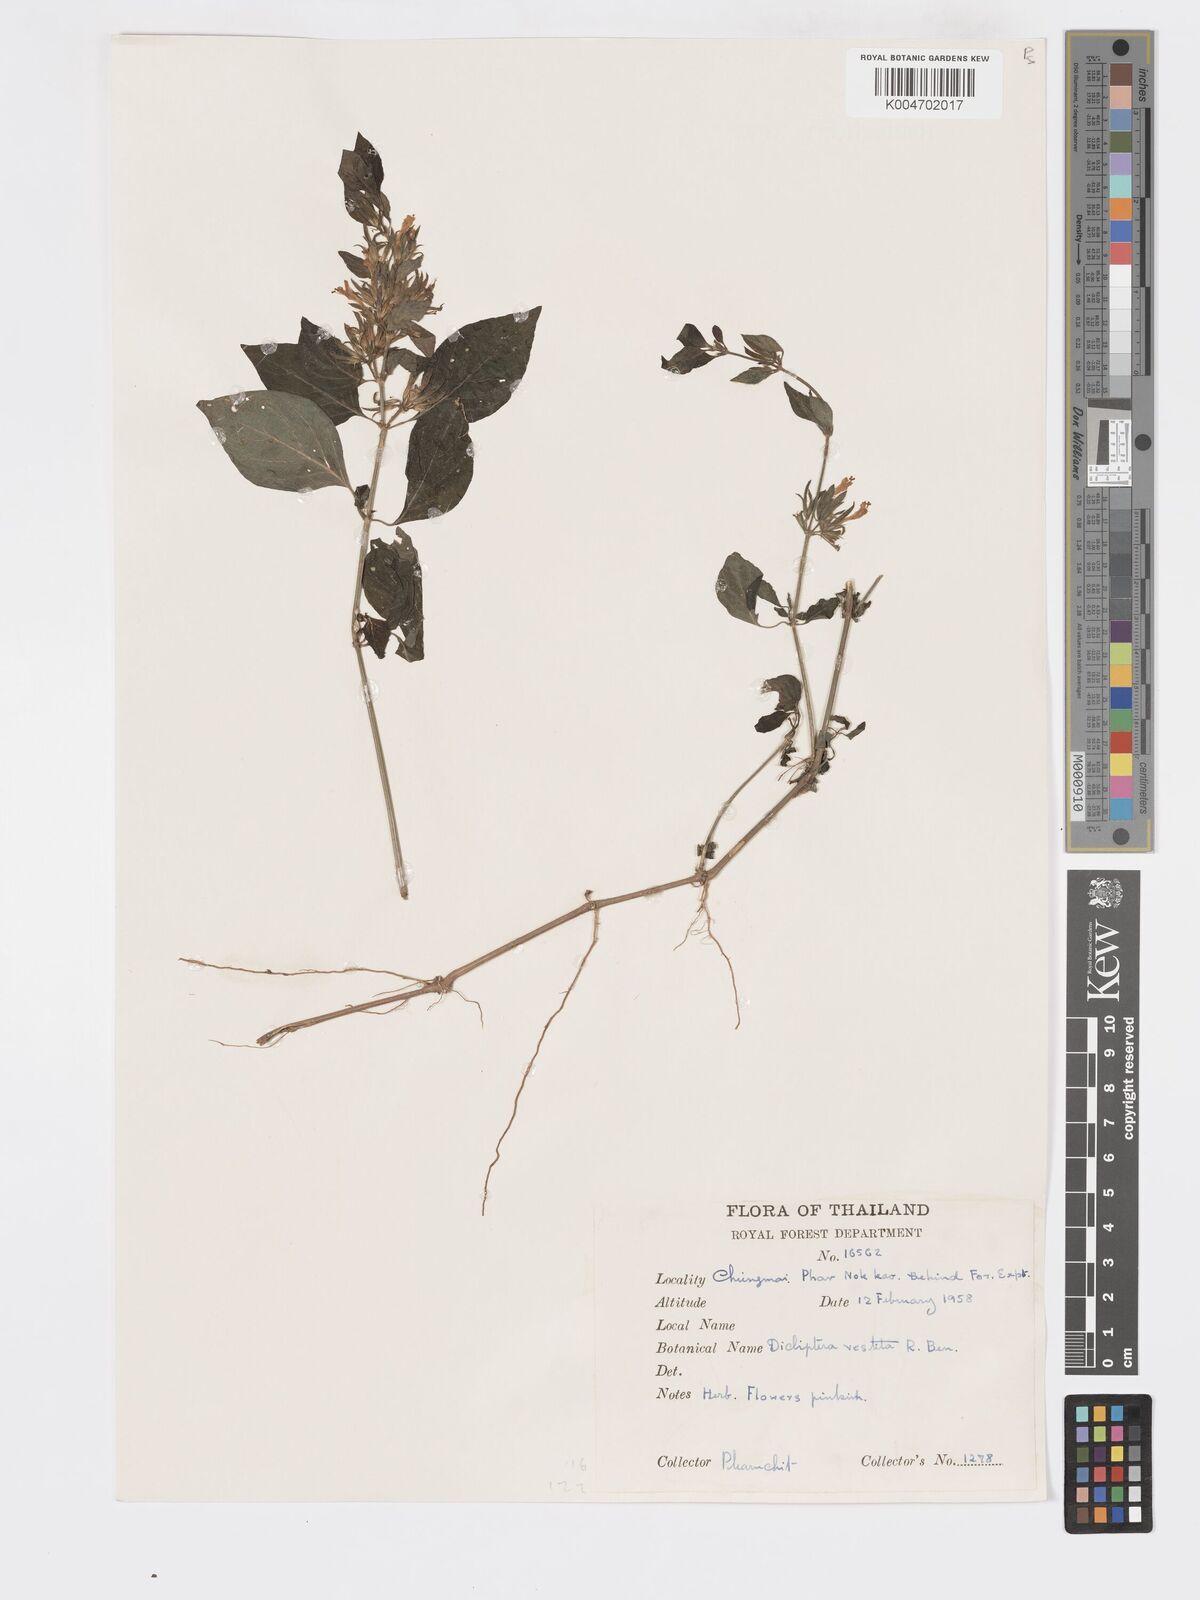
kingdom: Plantae
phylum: Tracheophyta
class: Magnoliopsida
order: Lamiales
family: Acanthaceae
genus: Dicliptera
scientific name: Dicliptera vestita
